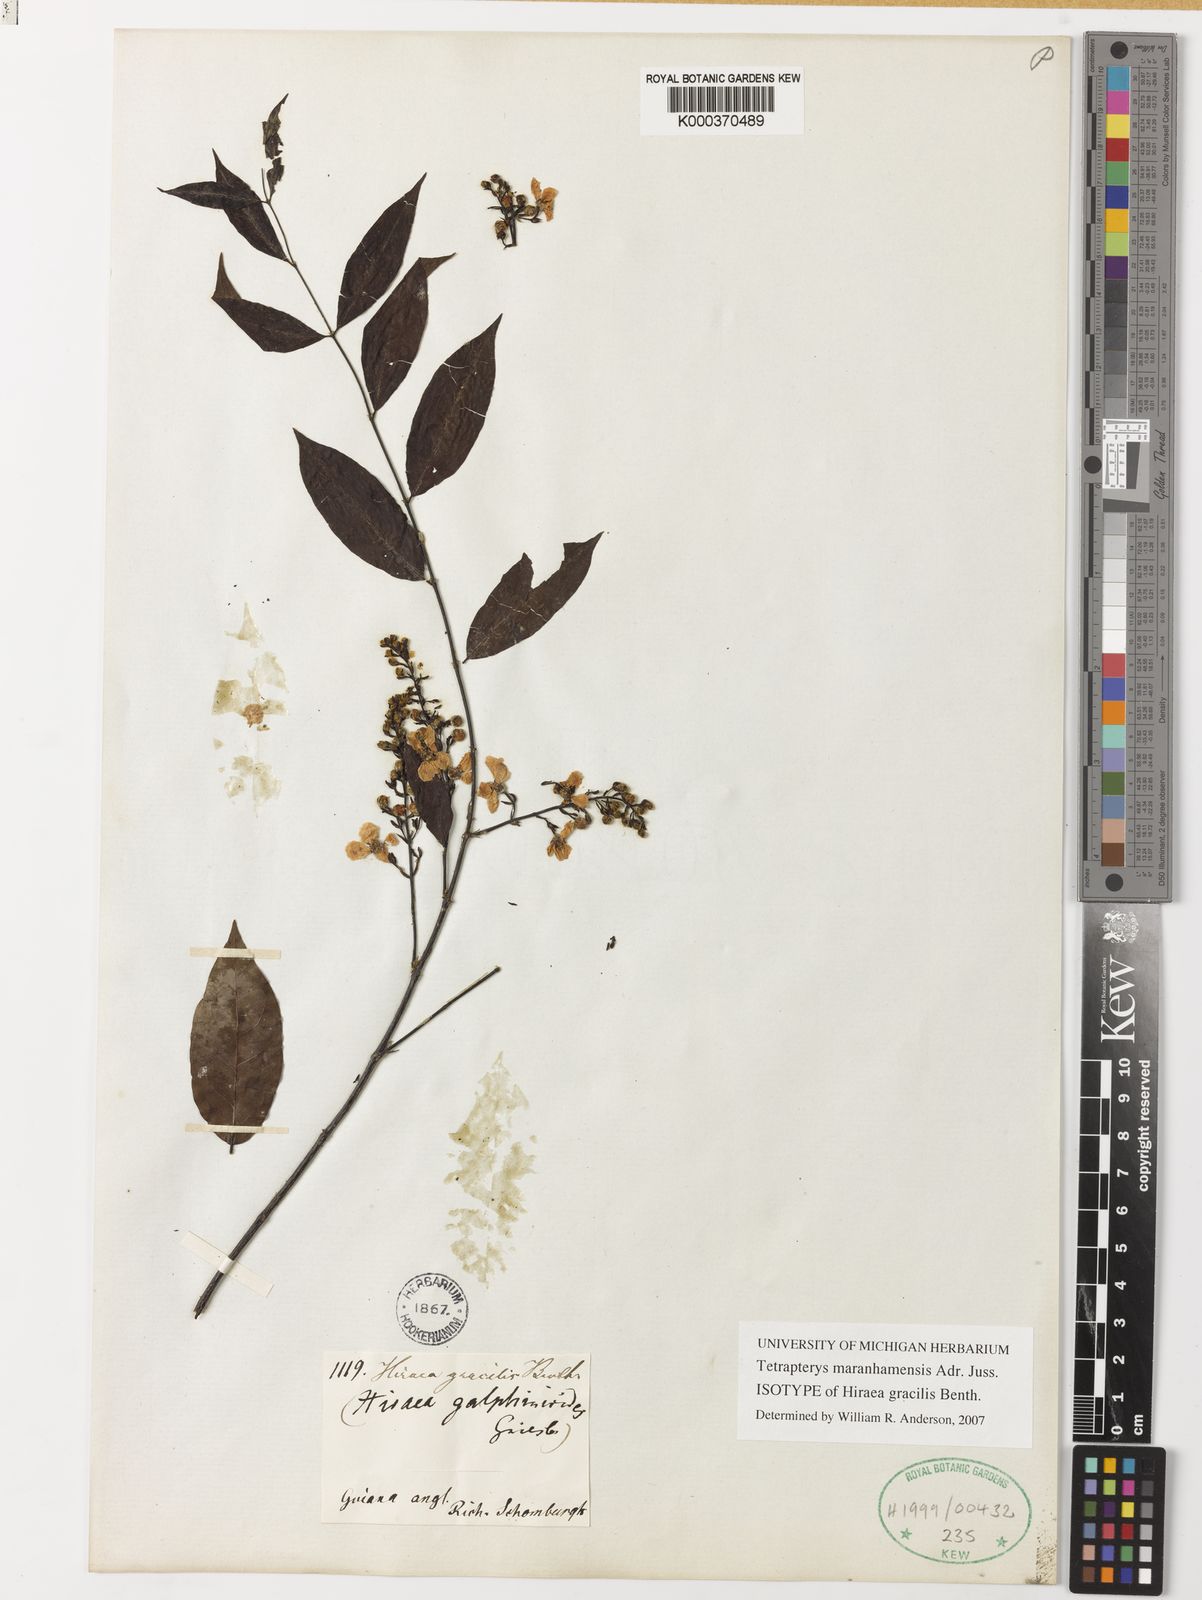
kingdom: Plantae
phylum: Tracheophyta
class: Magnoliopsida
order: Malpighiales
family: Malpighiaceae
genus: Glicophyllum
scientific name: Glicophyllum maranhamense
